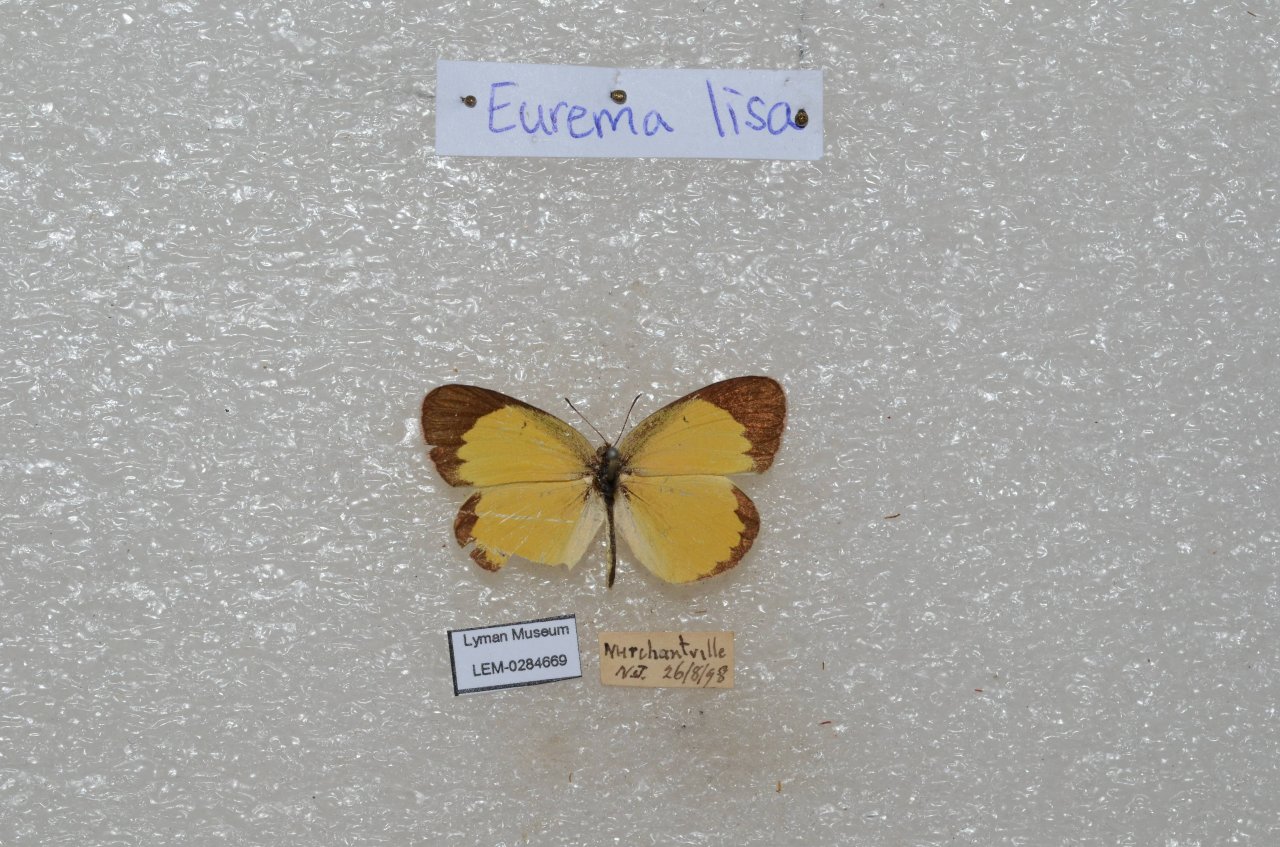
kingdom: Animalia
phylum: Arthropoda
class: Insecta
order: Lepidoptera
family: Pieridae
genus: Pyrisitia
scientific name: Pyrisitia lisa
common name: Little Yellow
